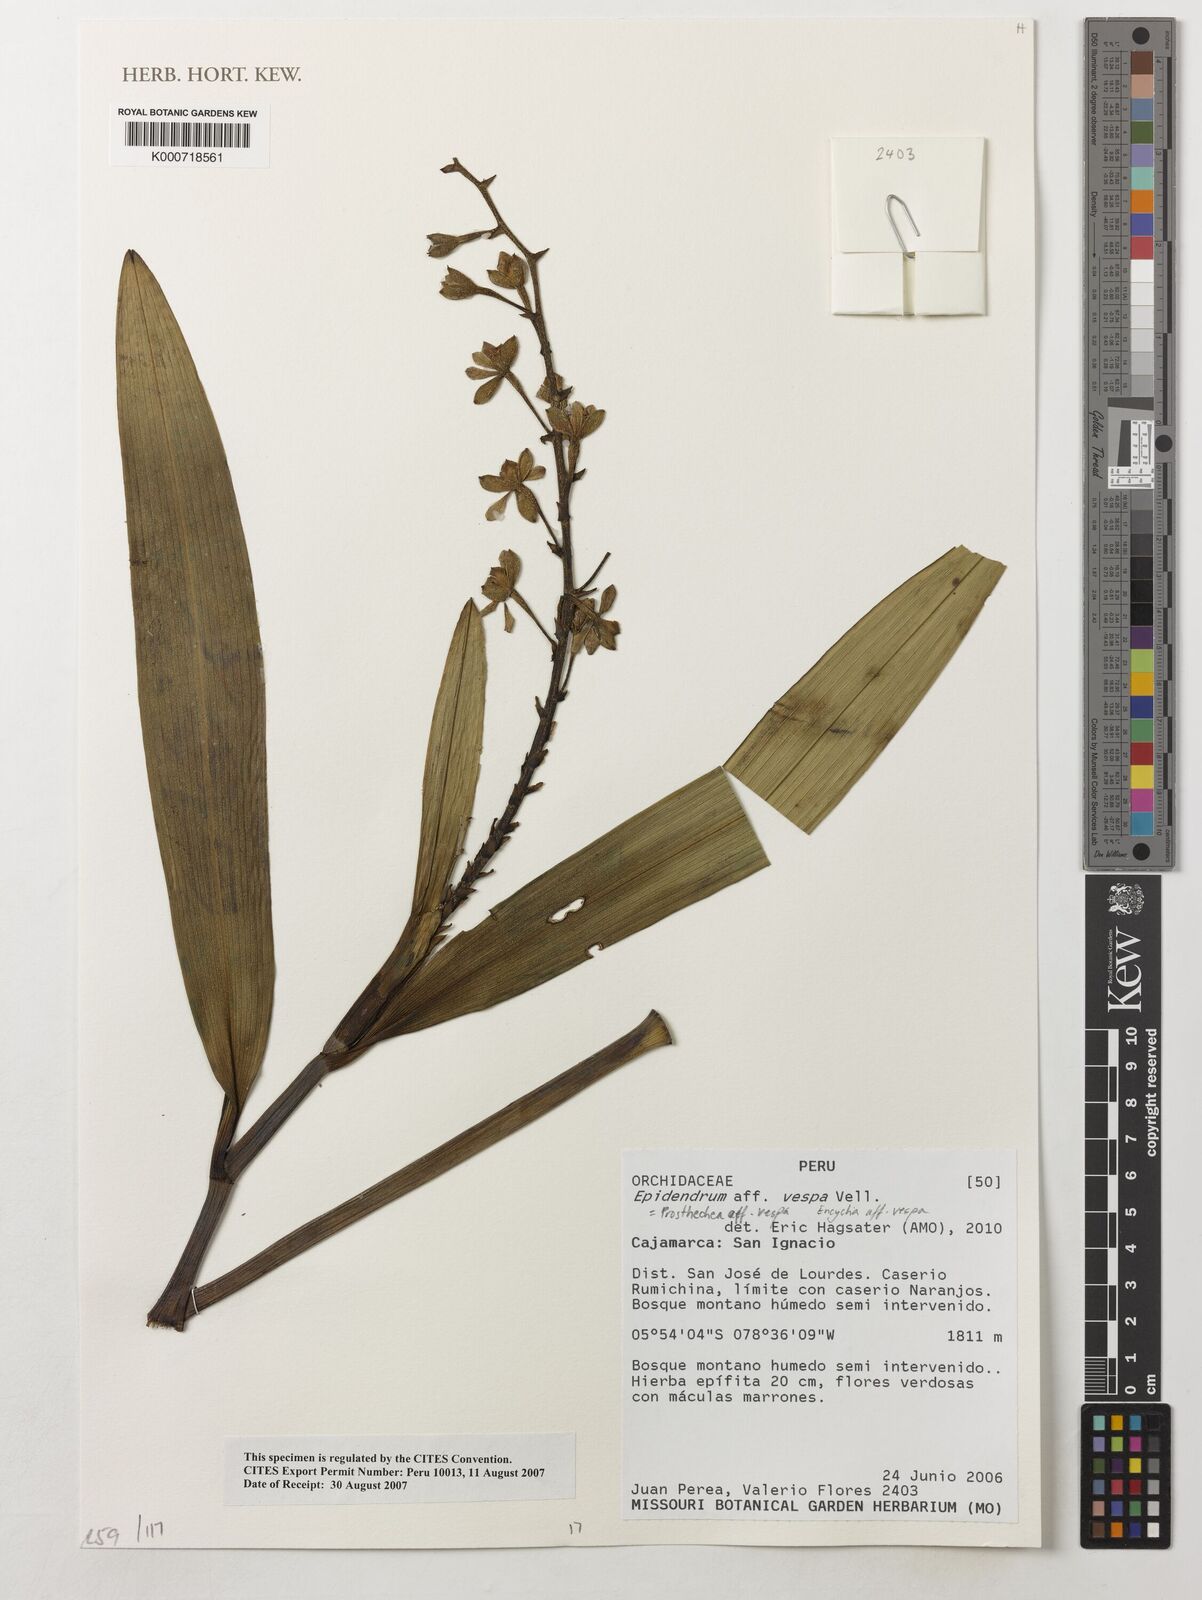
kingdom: Plantae
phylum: Tracheophyta
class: Liliopsida
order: Asparagales
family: Orchidaceae
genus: Prosthechea
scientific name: Prosthechea vespa
